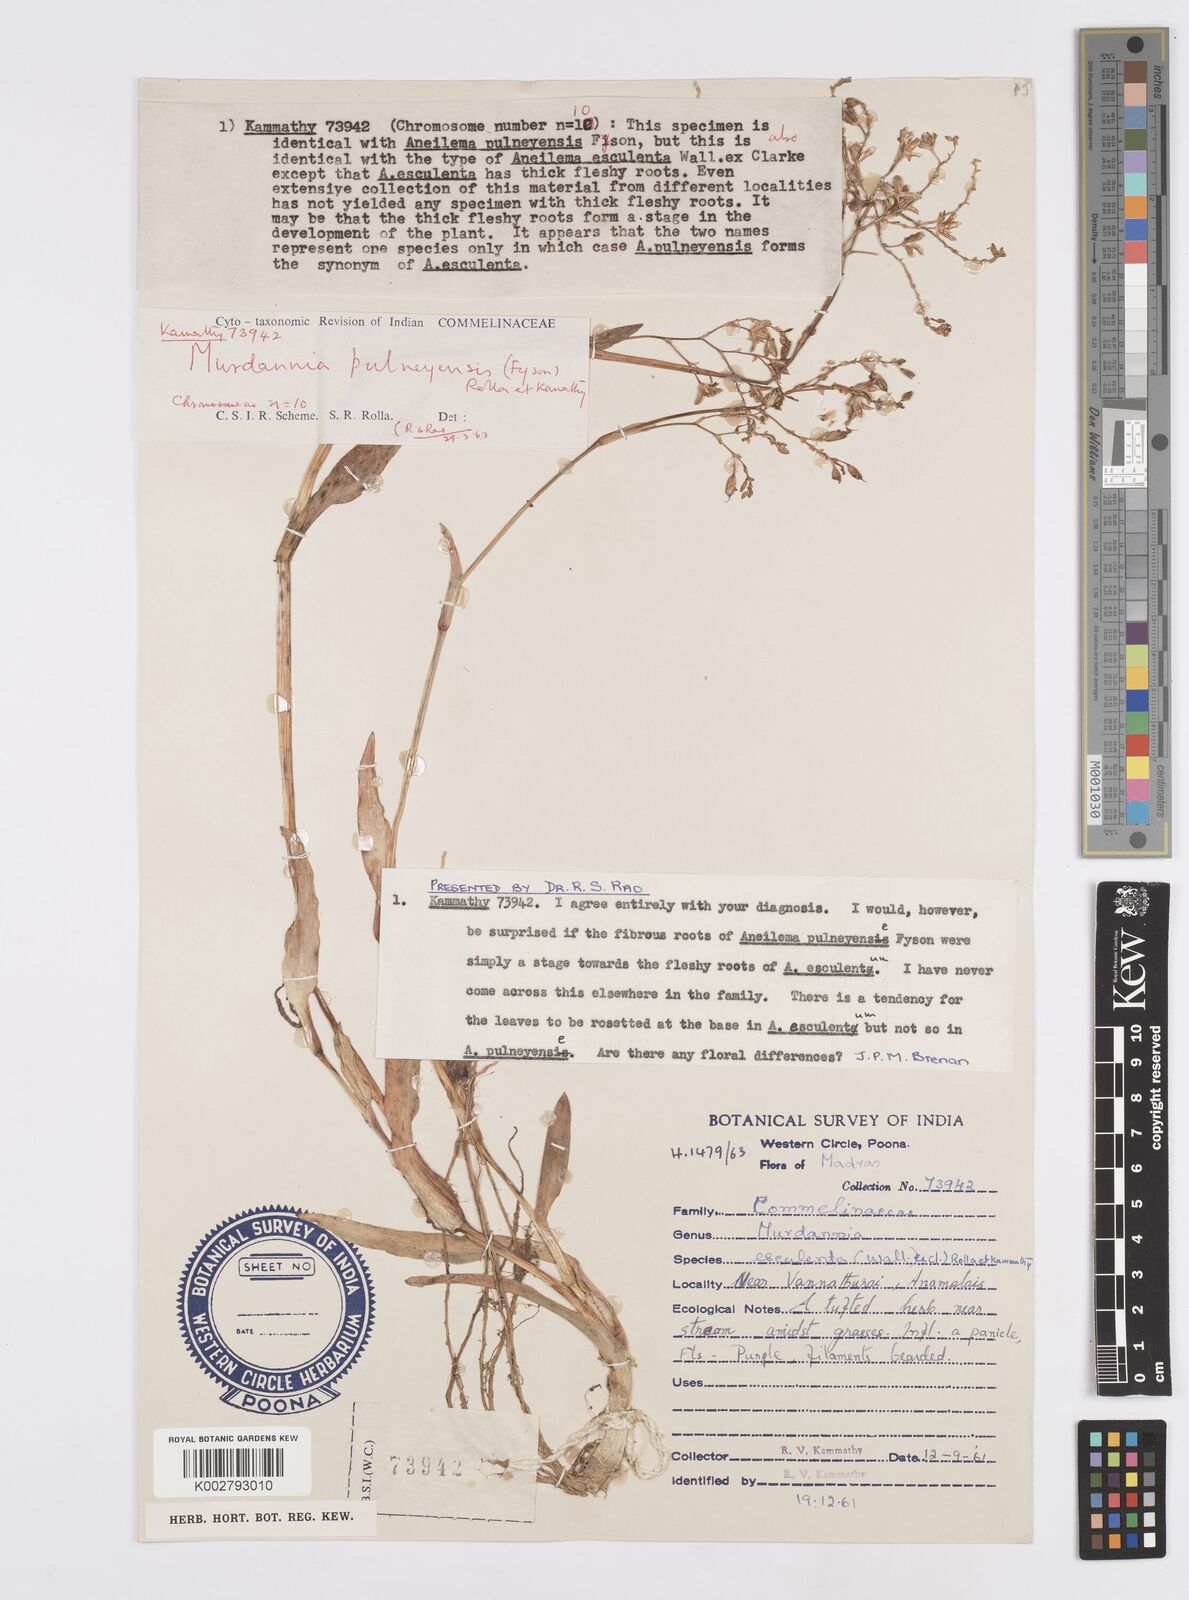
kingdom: Plantae
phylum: Tracheophyta
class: Liliopsida
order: Commelinales
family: Commelinaceae
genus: Murdannia
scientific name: Murdannia
